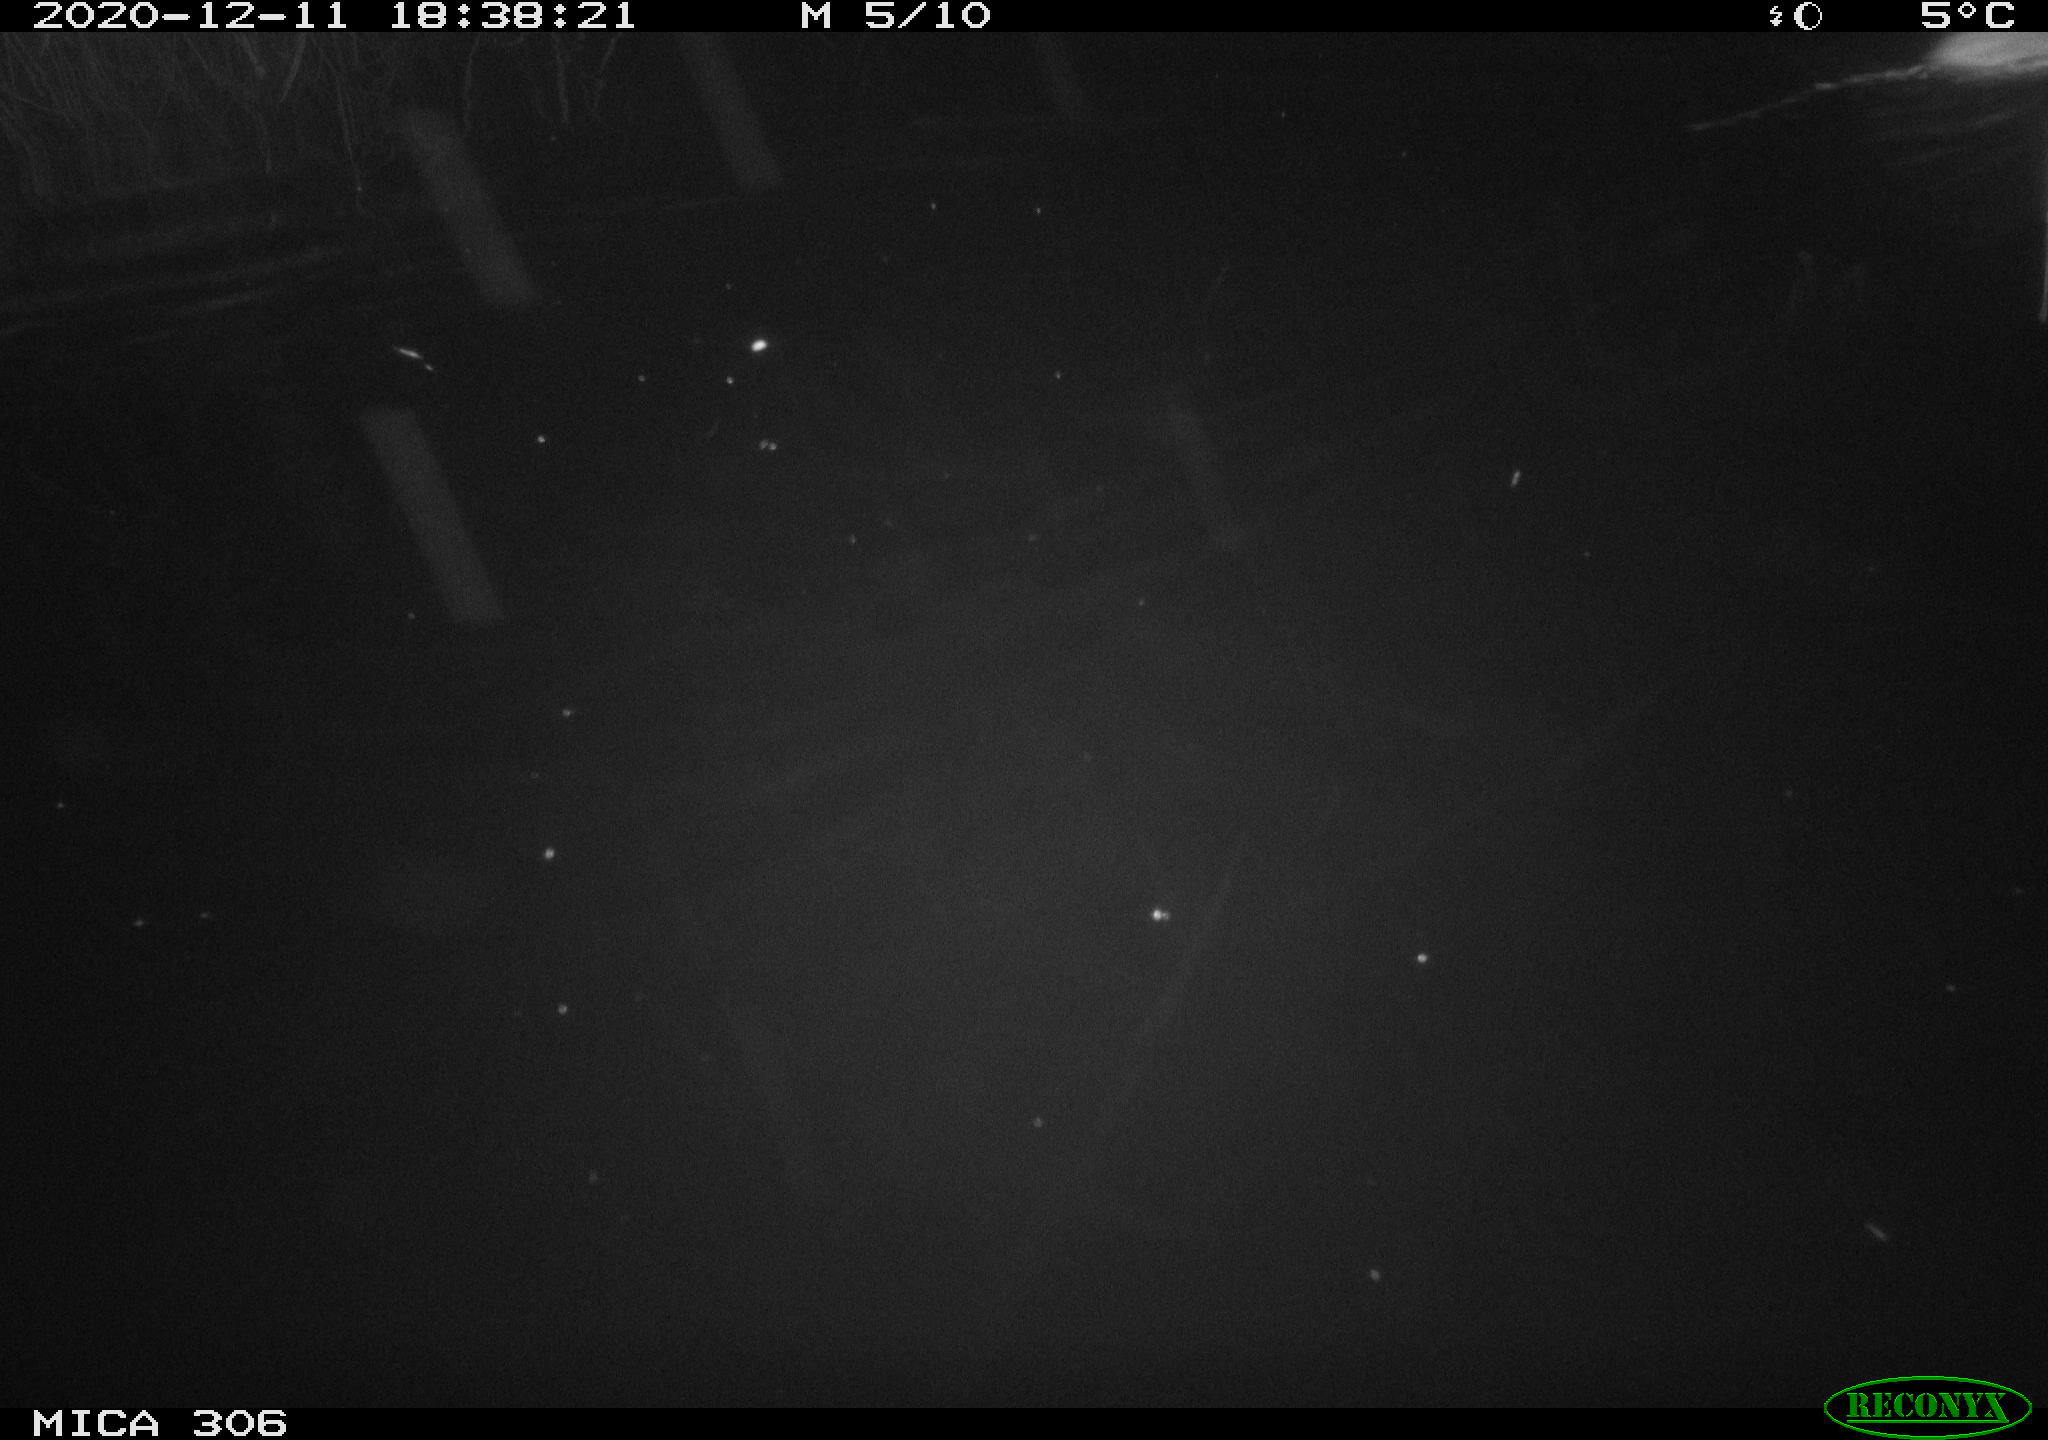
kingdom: Animalia
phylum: Chordata
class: Mammalia
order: Rodentia
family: Muridae
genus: Rattus
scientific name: Rattus norvegicus
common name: Brown rat
